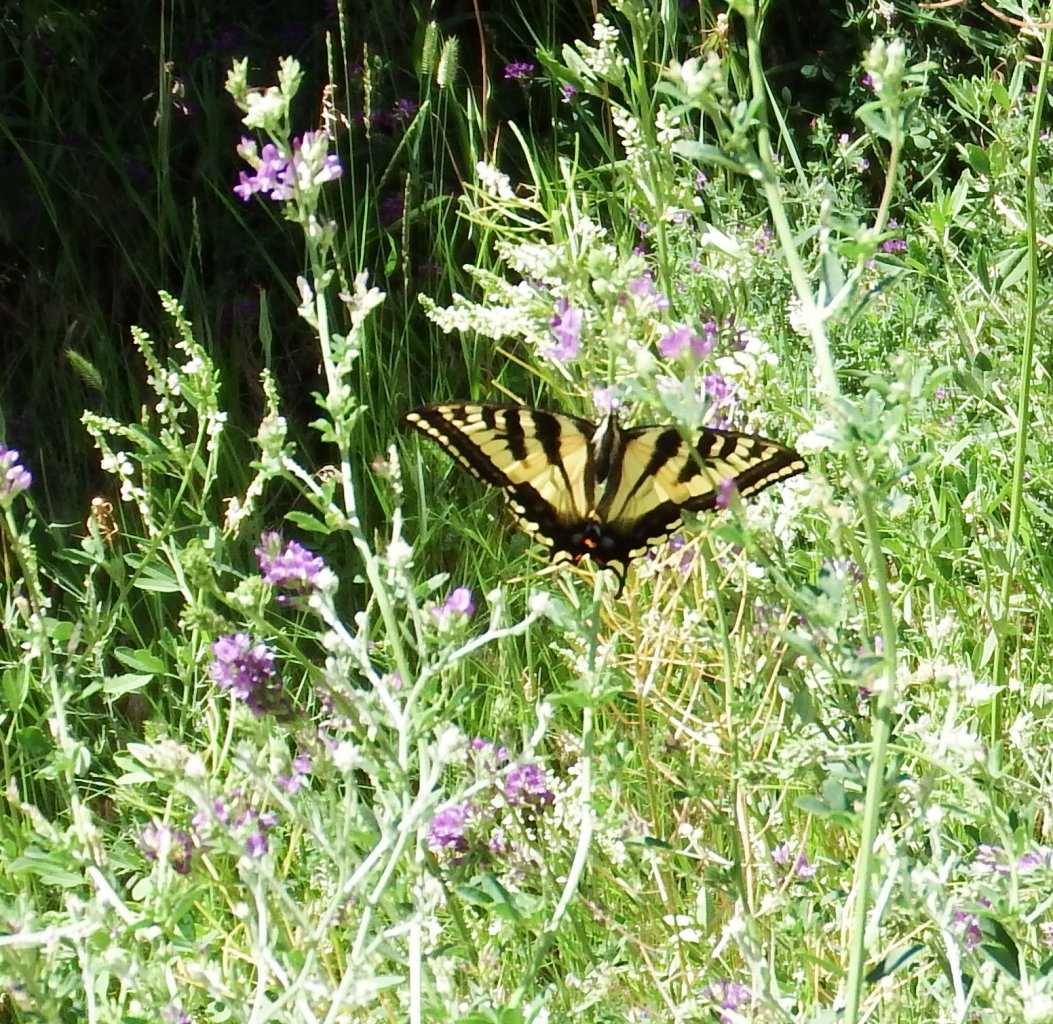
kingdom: Animalia
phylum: Arthropoda
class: Insecta
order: Lepidoptera
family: Papilionidae
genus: Pterourus
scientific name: Pterourus rutulus
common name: Western Tiger Swallowtail
